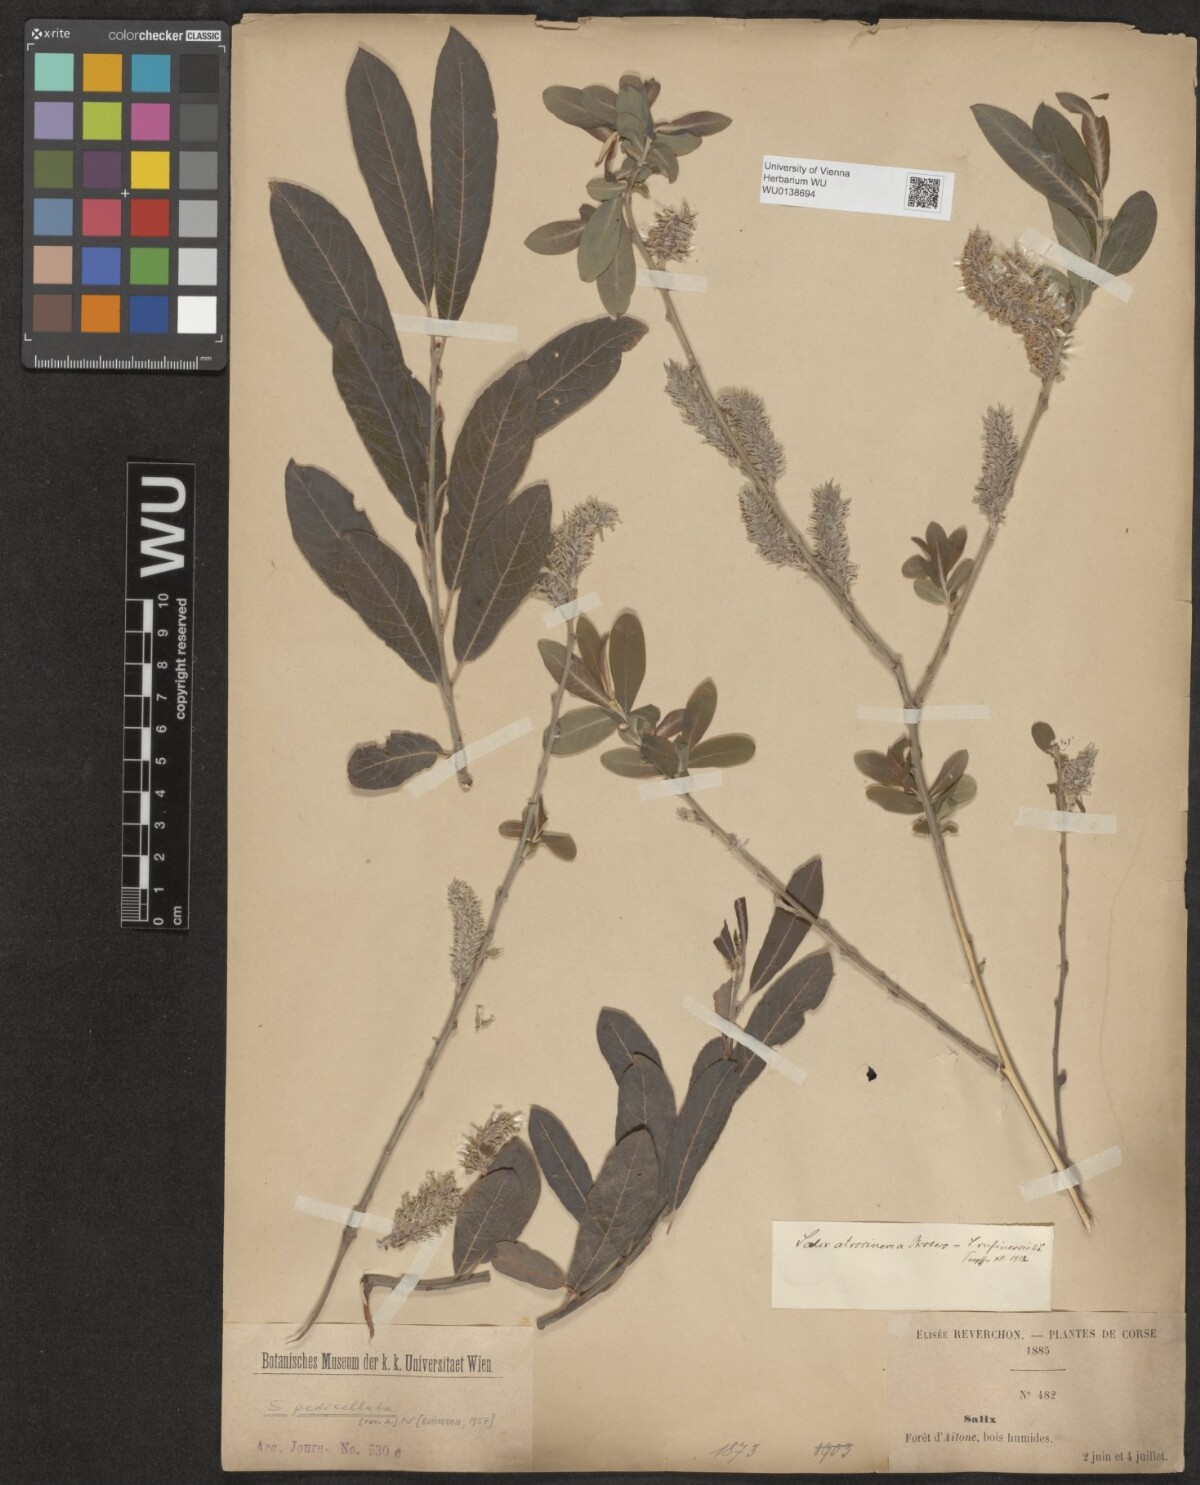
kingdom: Plantae
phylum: Tracheophyta
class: Magnoliopsida
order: Malpighiales
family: Salicaceae
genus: Salix
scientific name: Salix pedicellata
